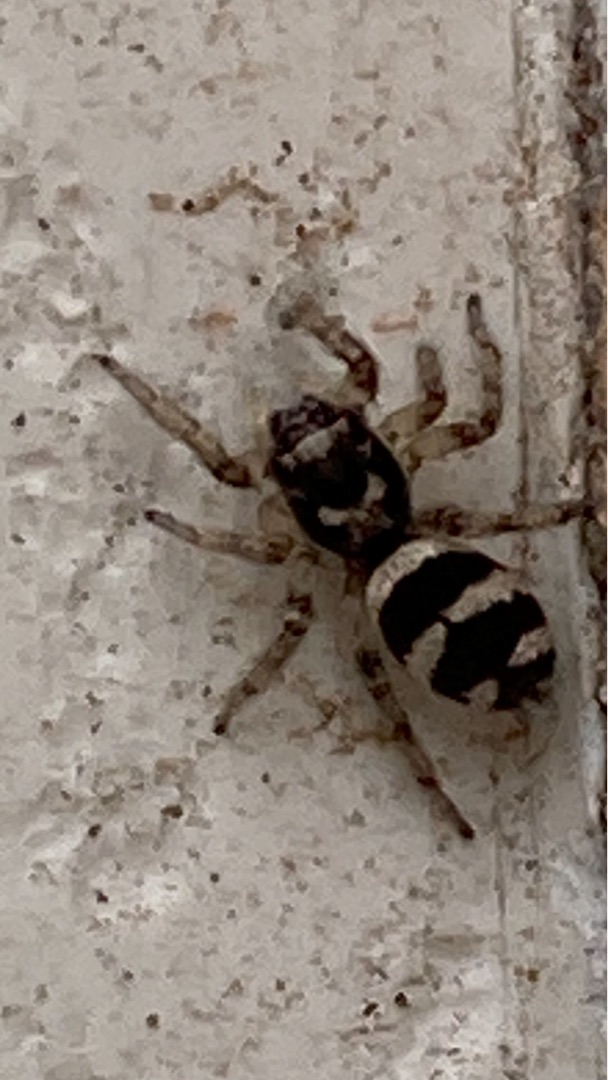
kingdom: Animalia
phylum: Arthropoda
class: Arachnida
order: Araneae
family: Salticidae
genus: Salticus
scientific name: Salticus scenicus
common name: Almindelig zebraedderkop
